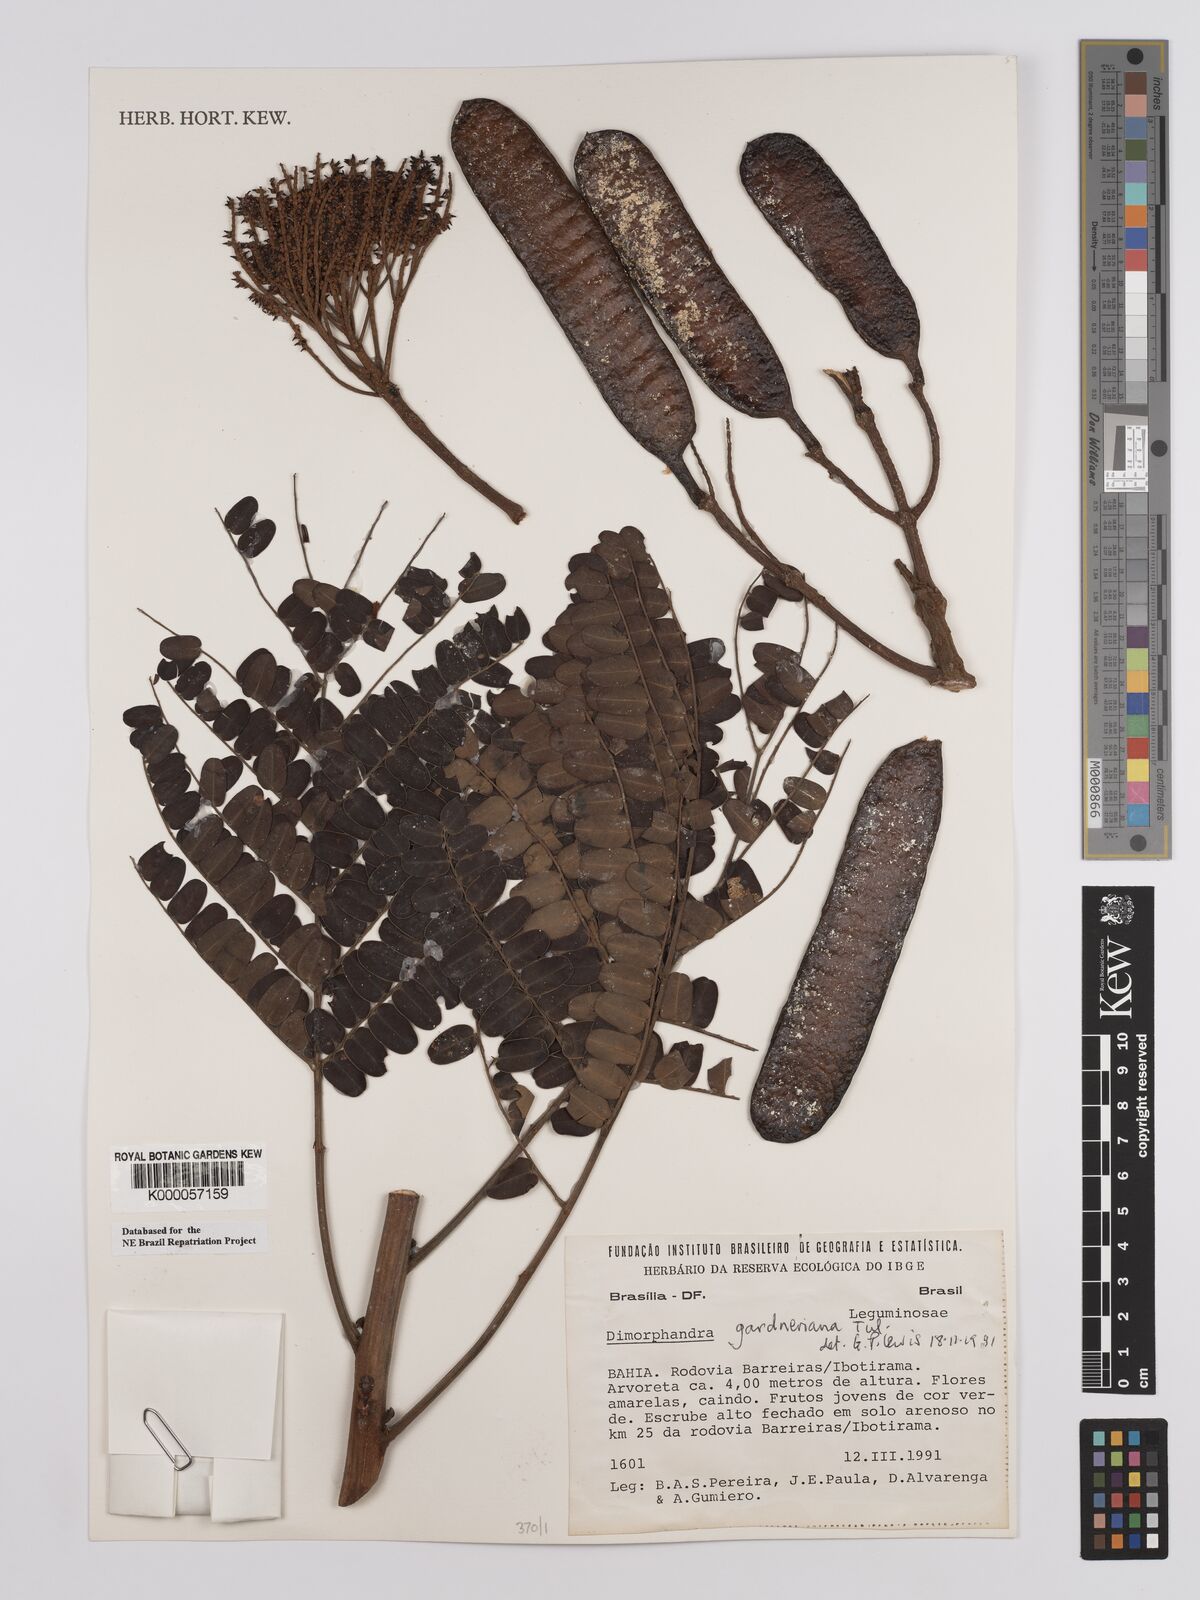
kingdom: Plantae
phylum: Tracheophyta
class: Magnoliopsida
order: Fabales
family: Fabaceae
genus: Dimorphandra
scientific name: Dimorphandra gardneriana
